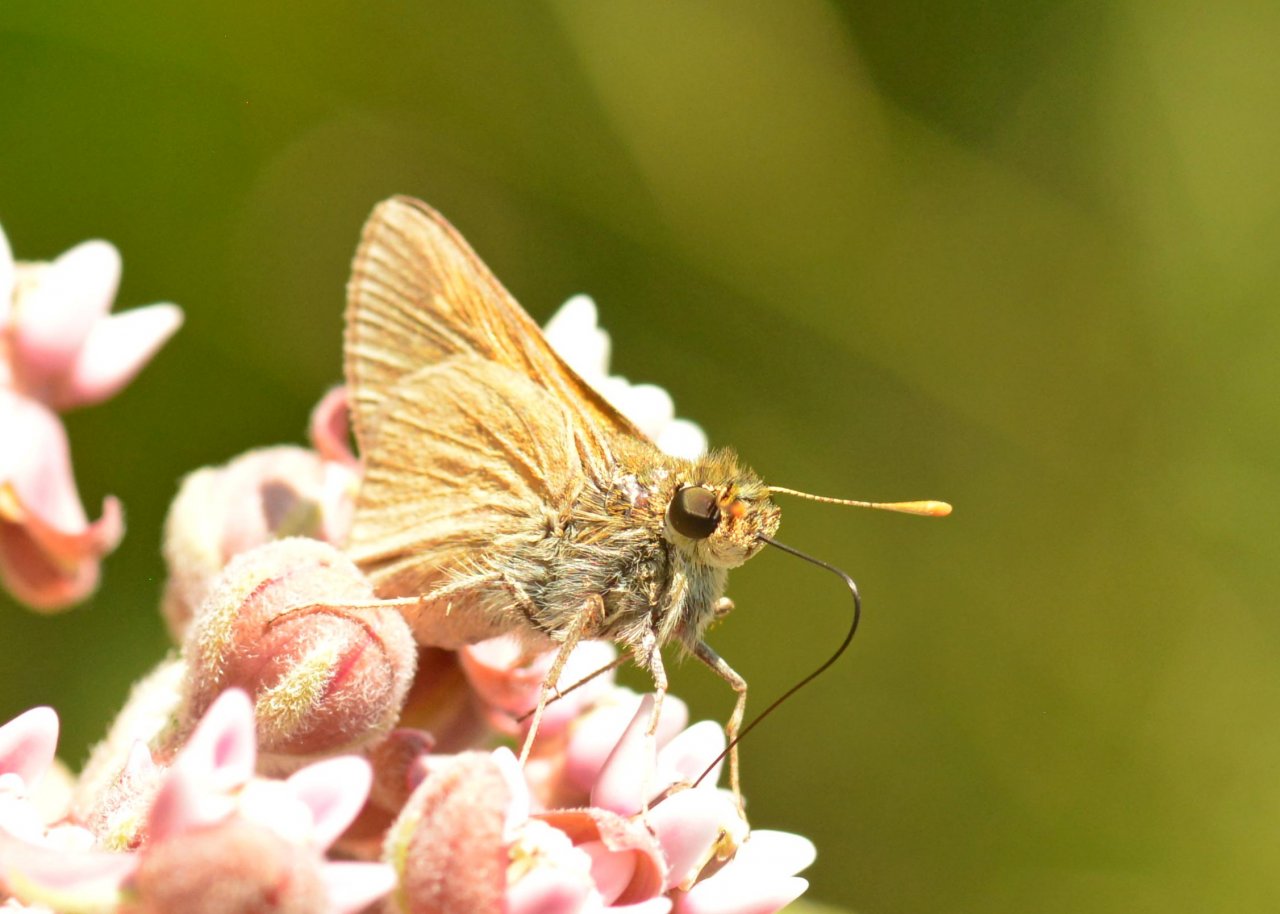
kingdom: Animalia
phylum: Arthropoda
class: Insecta
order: Lepidoptera
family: Hesperiidae
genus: Polites
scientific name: Polites
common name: Crossline Skipper
